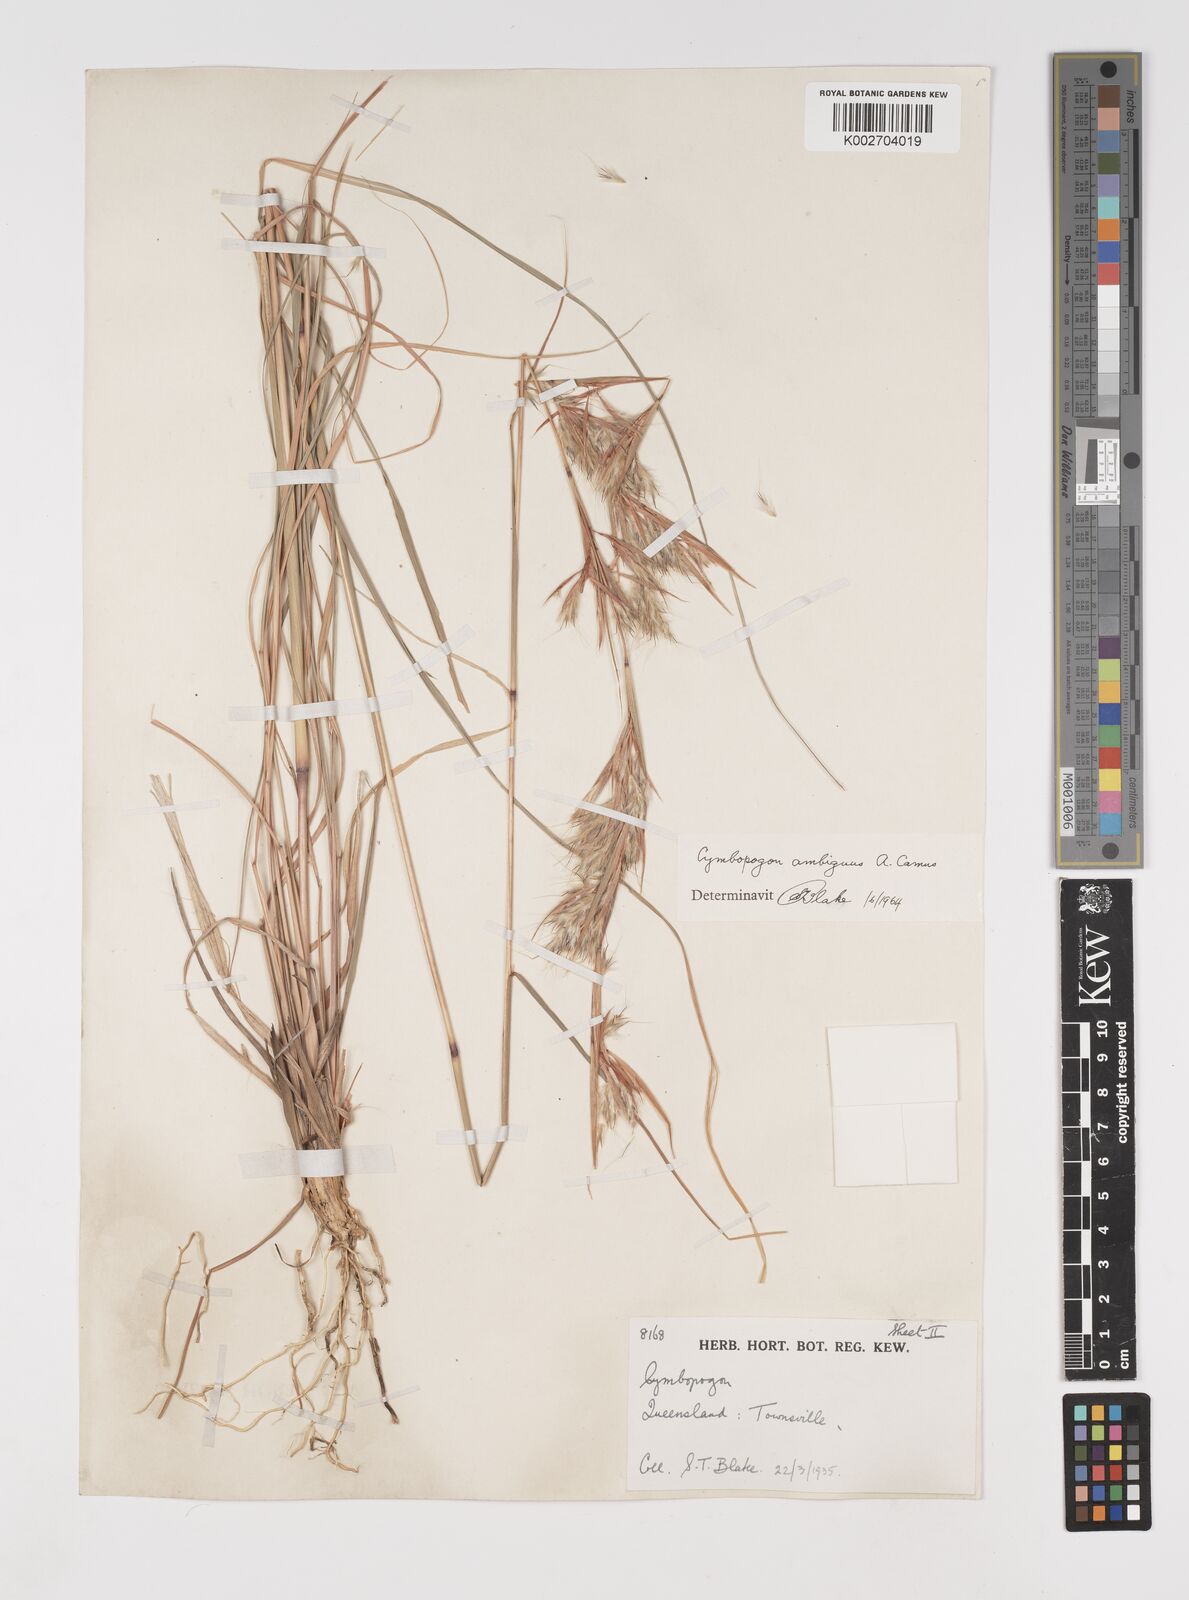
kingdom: Plantae
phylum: Tracheophyta
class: Liliopsida
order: Poales
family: Poaceae
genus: Cymbopogon
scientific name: Cymbopogon ambiguus
